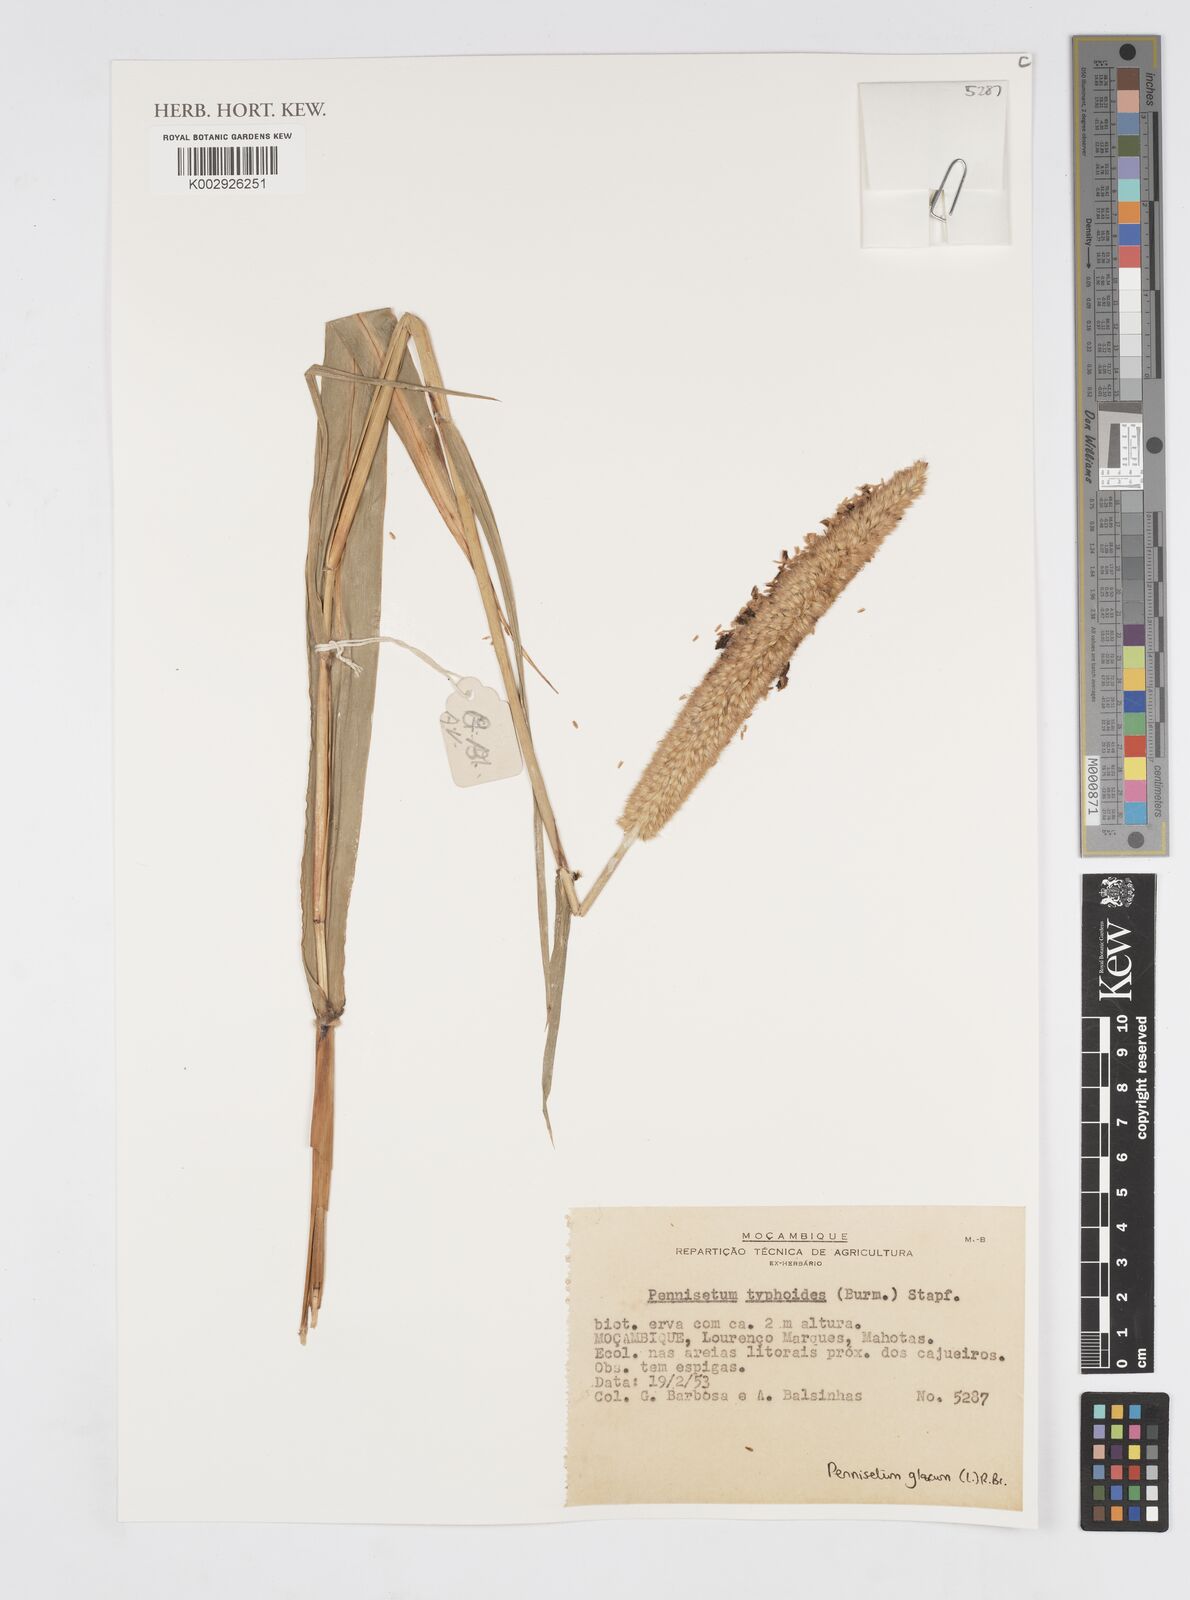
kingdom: Plantae
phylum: Tracheophyta
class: Liliopsida
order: Poales
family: Poaceae
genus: Cenchrus
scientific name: Cenchrus americanus
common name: Pearl millet
